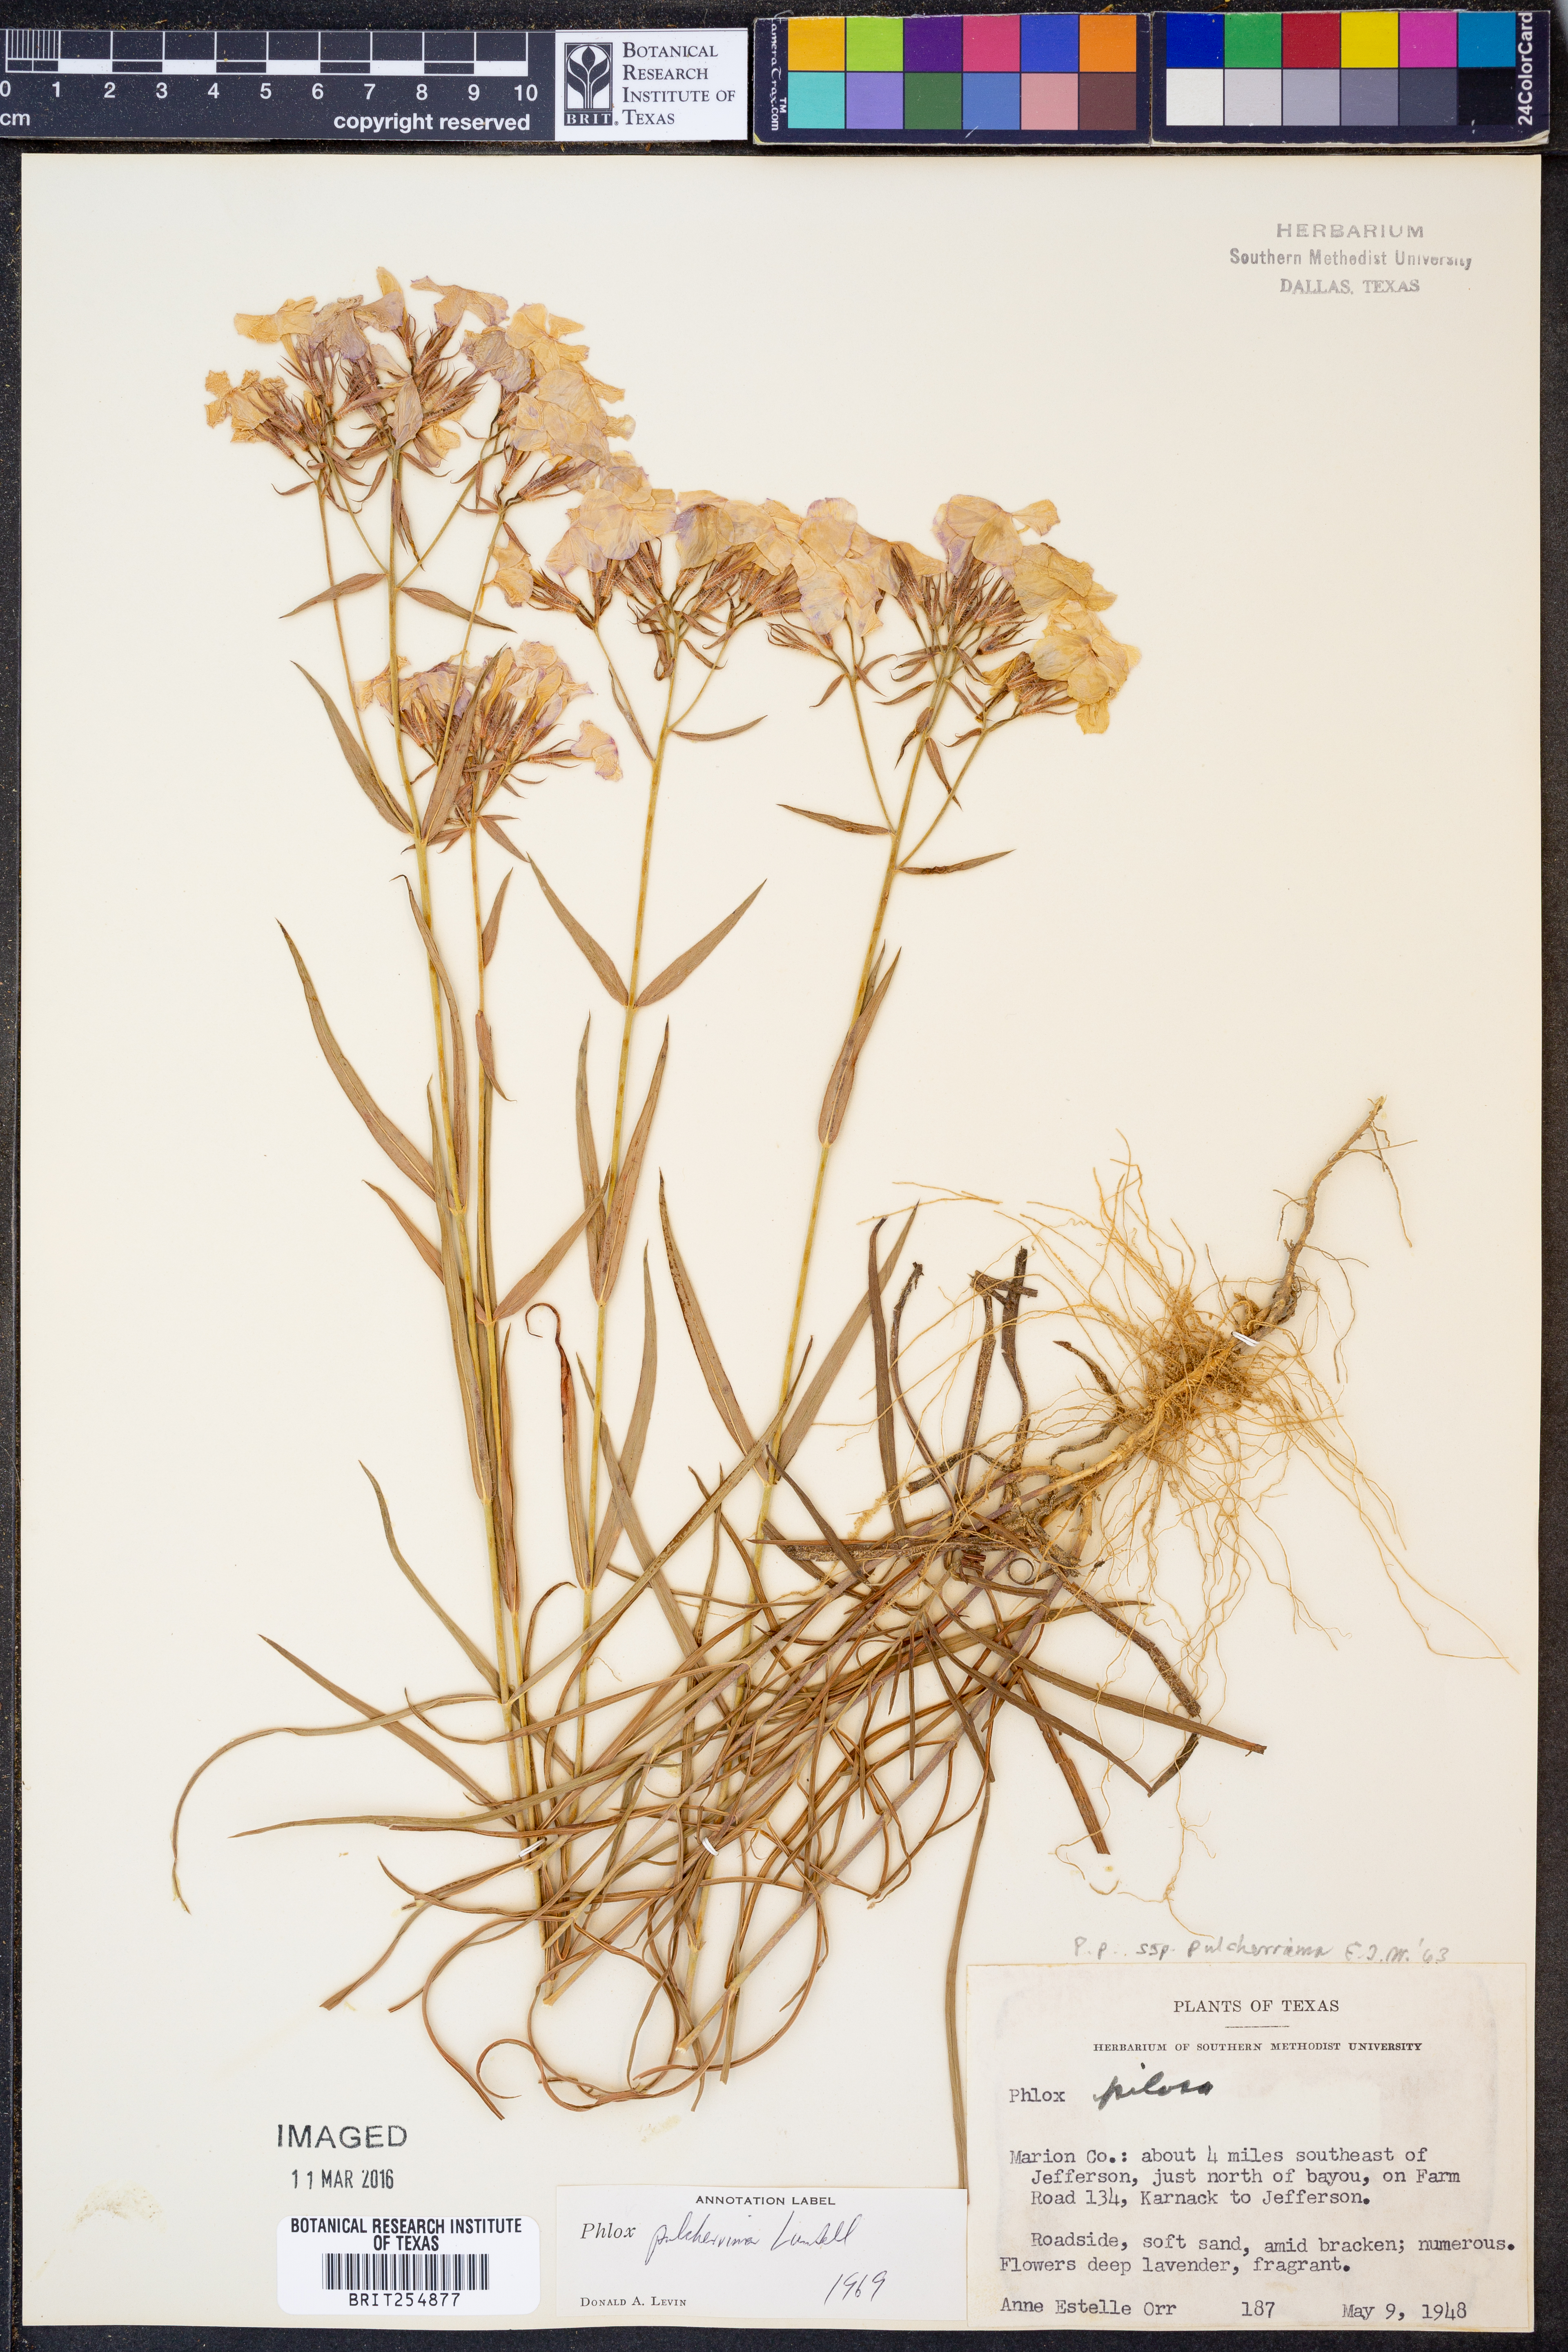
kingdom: Plantae
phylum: Tracheophyta
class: Magnoliopsida
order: Ericales
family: Polemoniaceae
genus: Phlox
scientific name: Phlox pilosa
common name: Prairie phlox
